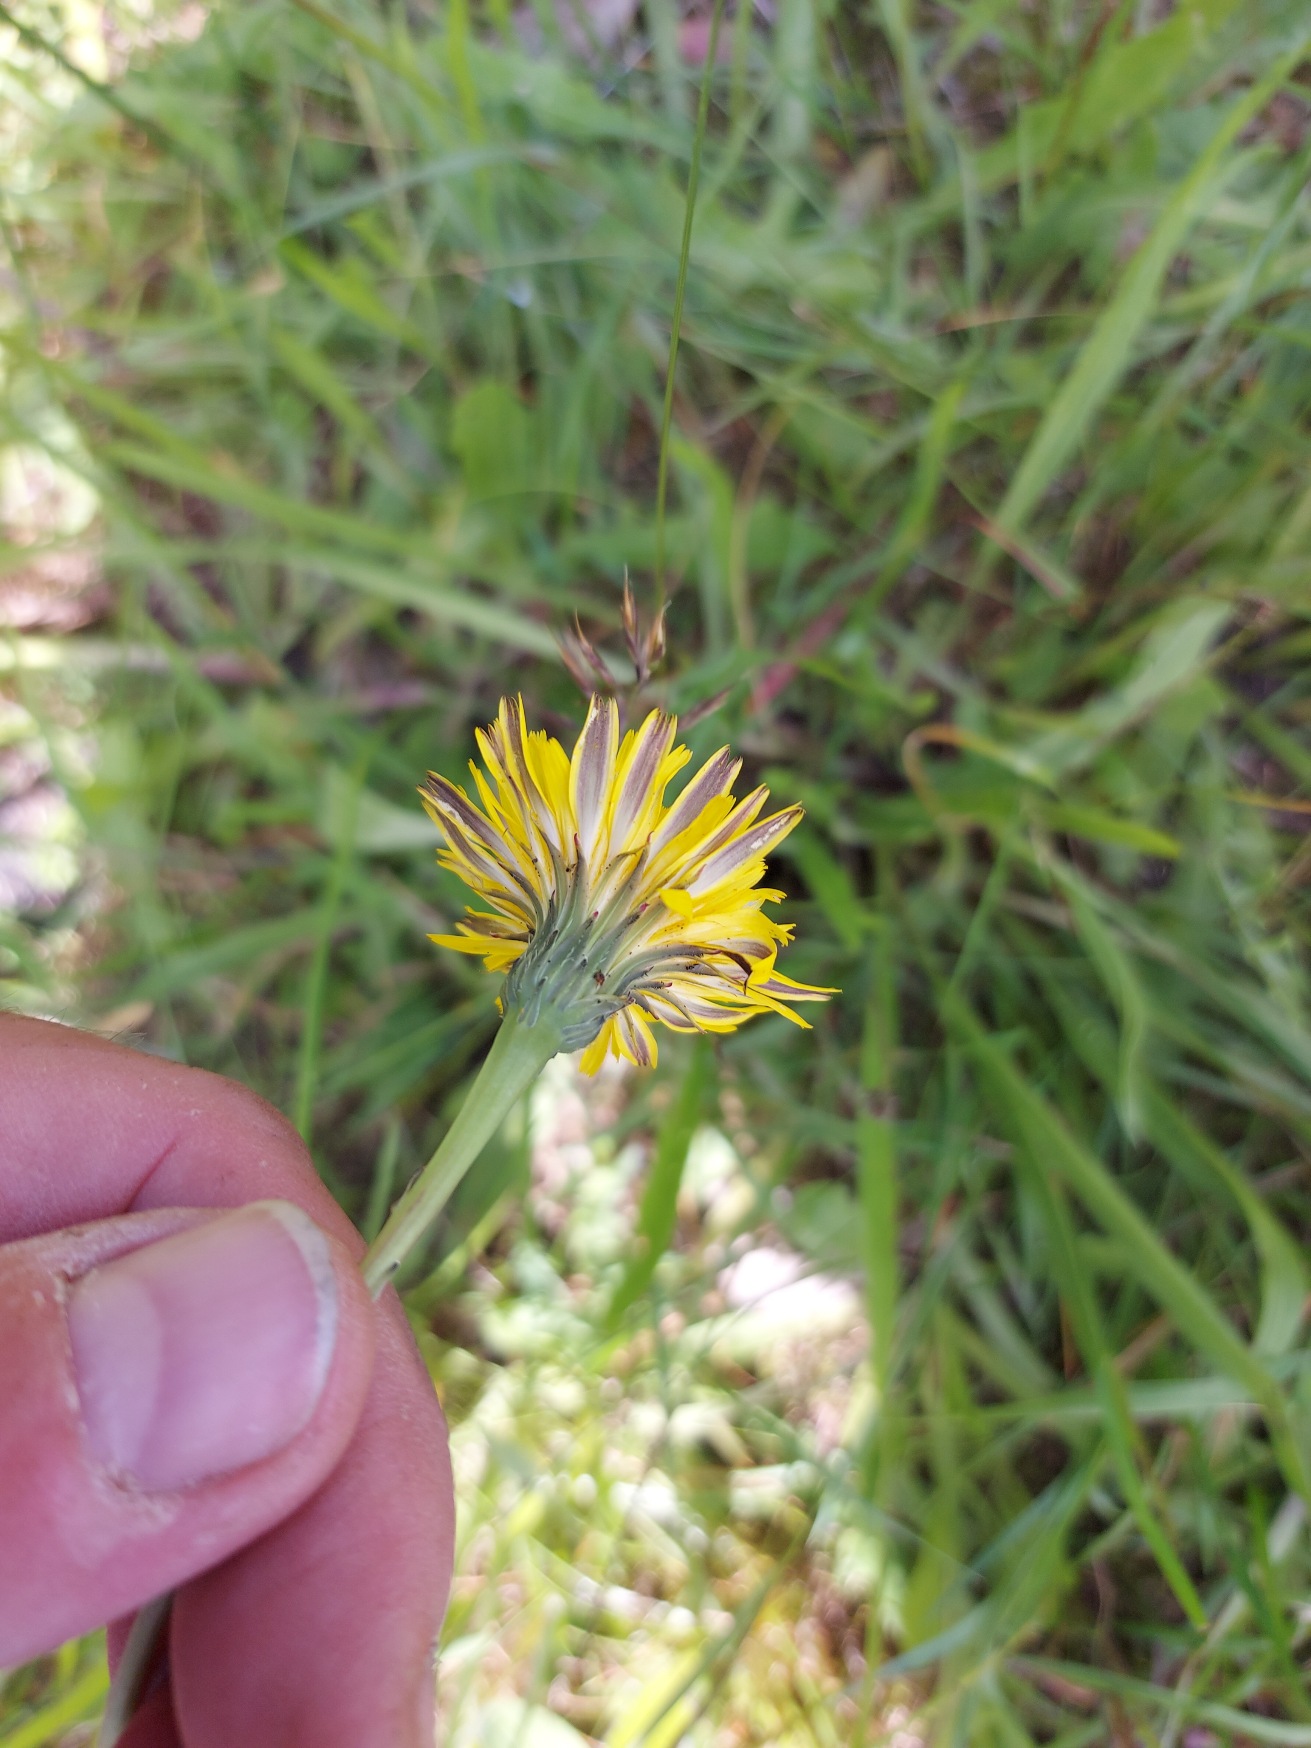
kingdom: Plantae
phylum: Tracheophyta
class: Magnoliopsida
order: Asterales
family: Asteraceae
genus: Hypochaeris
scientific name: Hypochaeris radicata
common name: Almindelig kongepen
